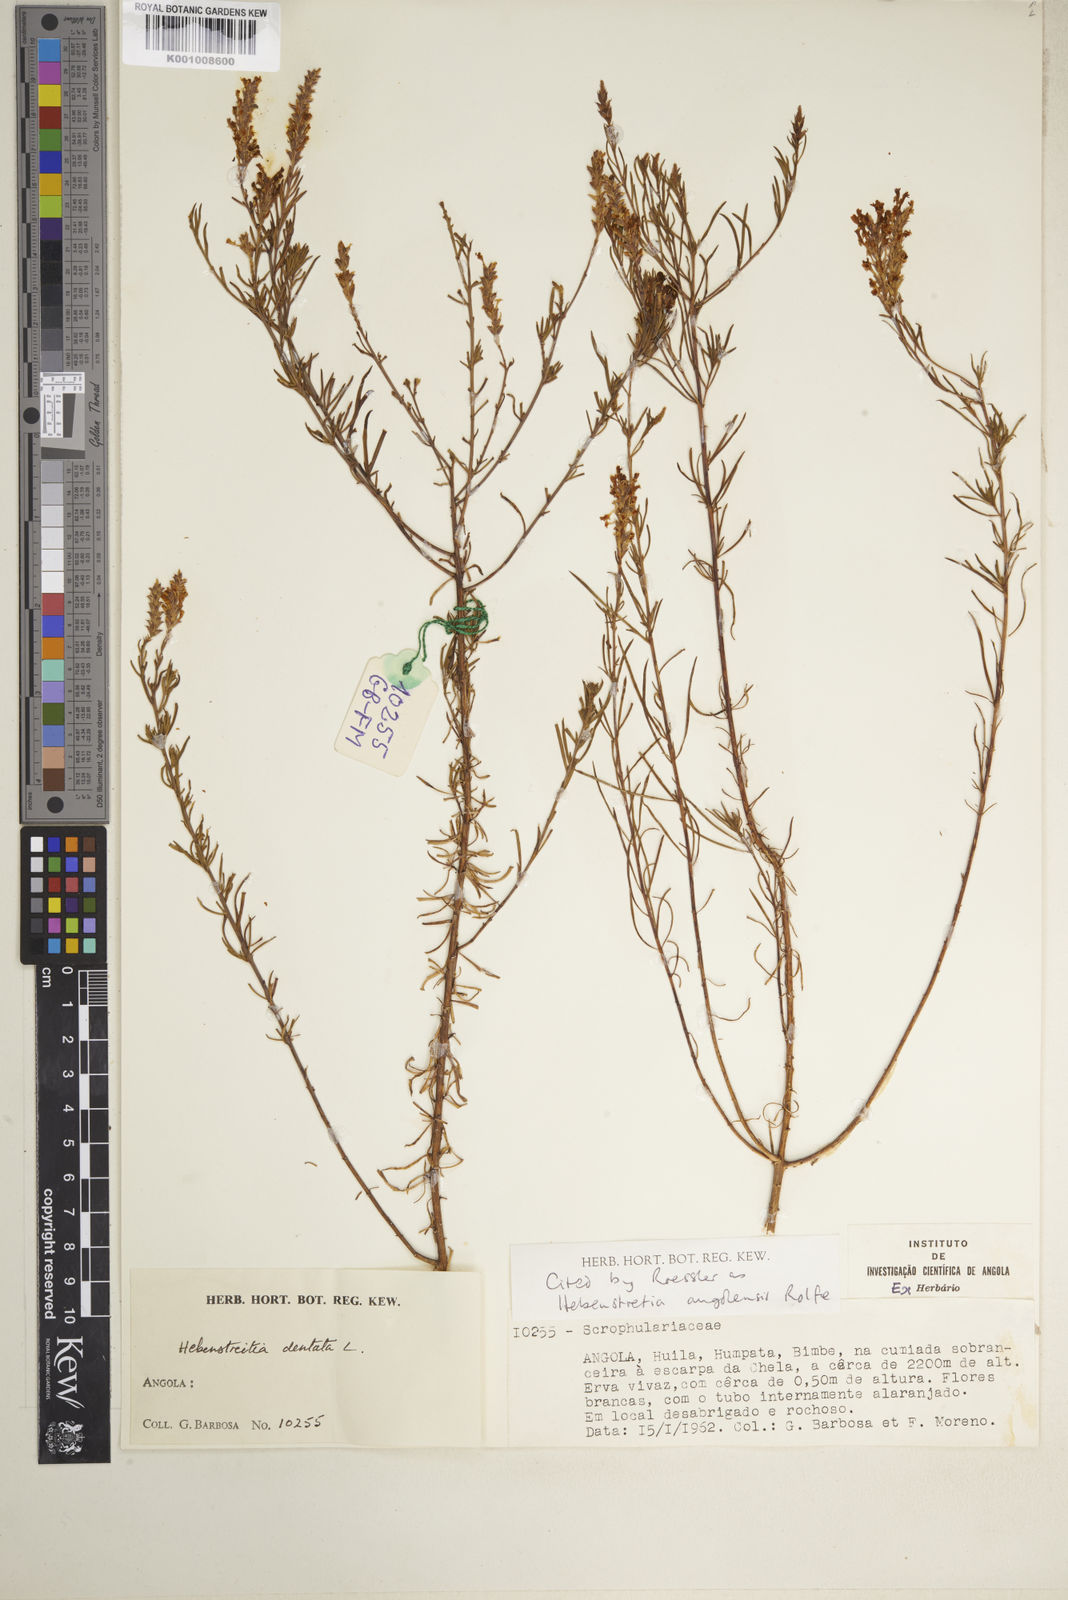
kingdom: Plantae
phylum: Tracheophyta
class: Magnoliopsida
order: Lamiales
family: Scrophulariaceae
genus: Hebenstretia
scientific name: Hebenstretia angolensis
